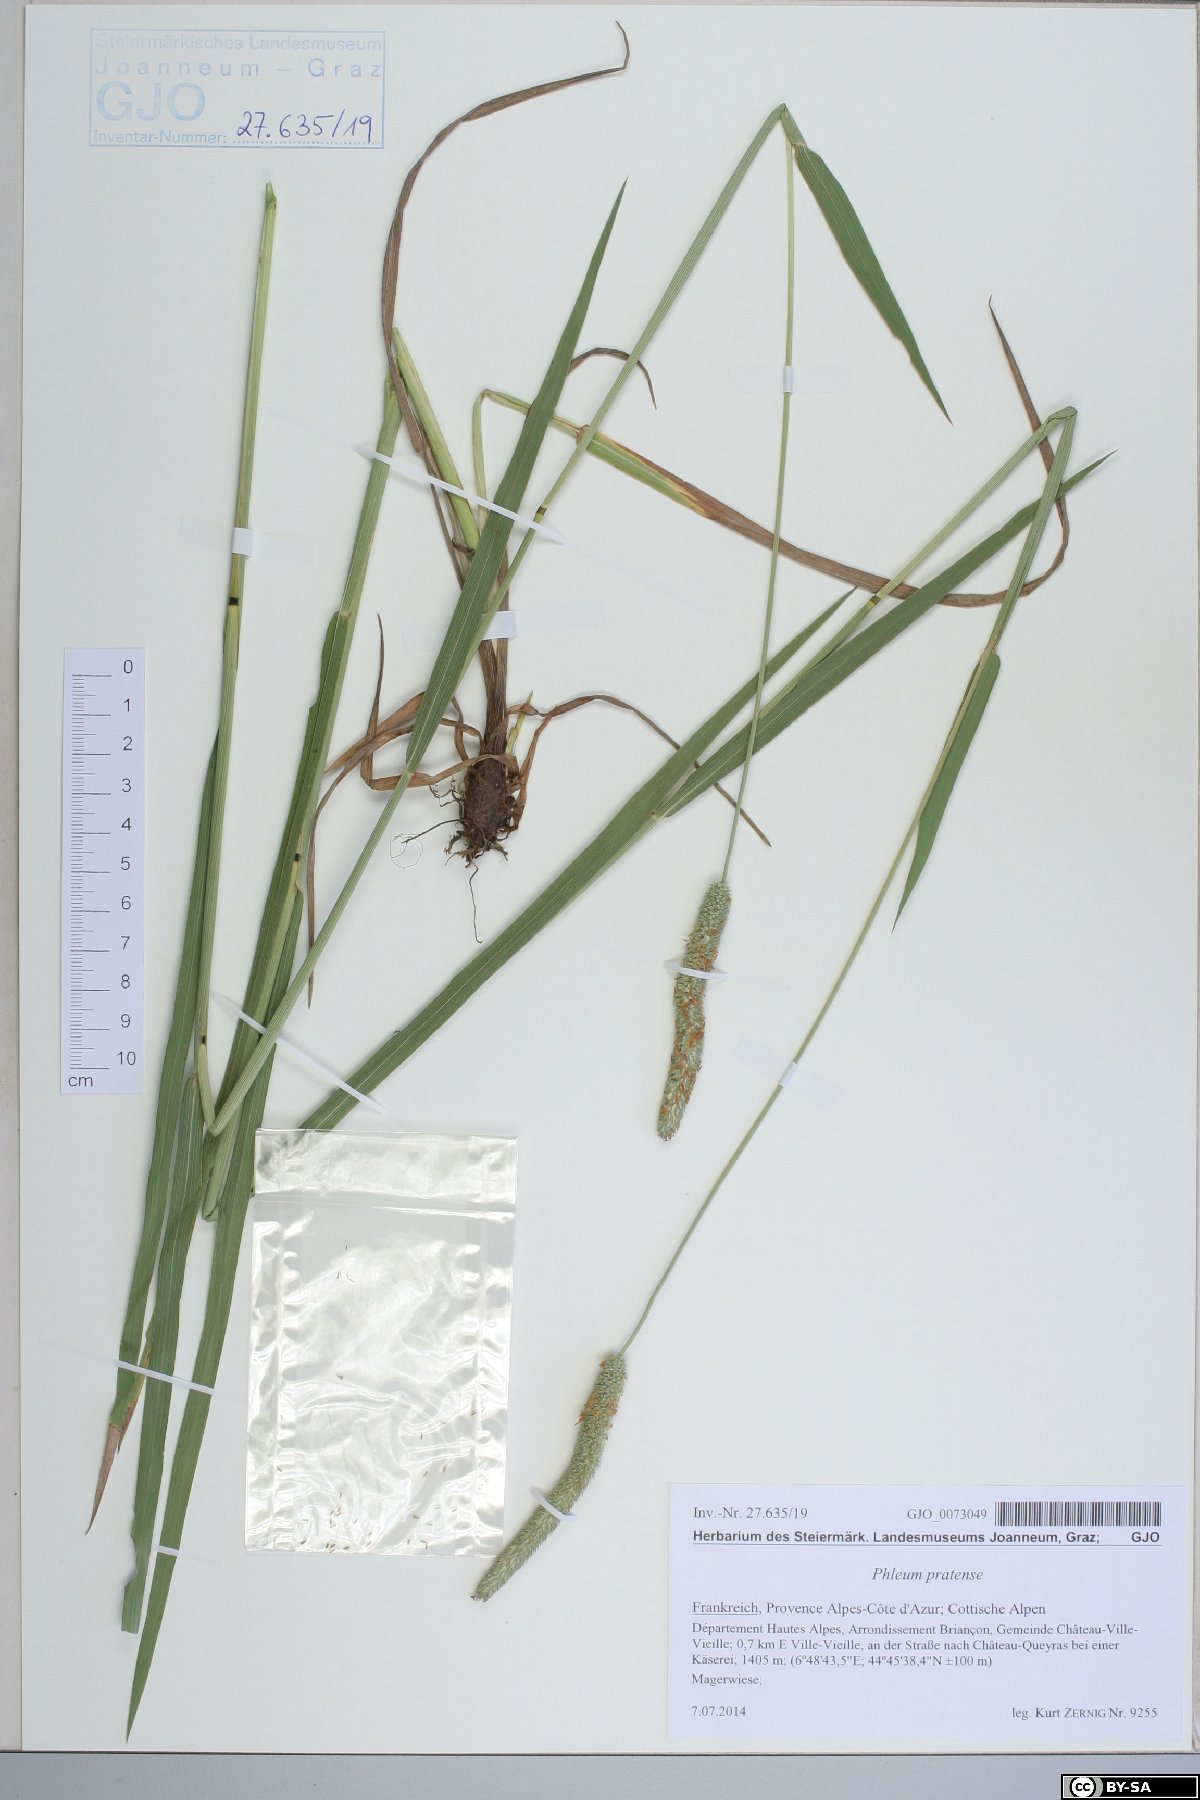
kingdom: Plantae
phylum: Tracheophyta
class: Liliopsida
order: Poales
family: Poaceae
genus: Phleum
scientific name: Phleum pratense
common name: Timothy grass
